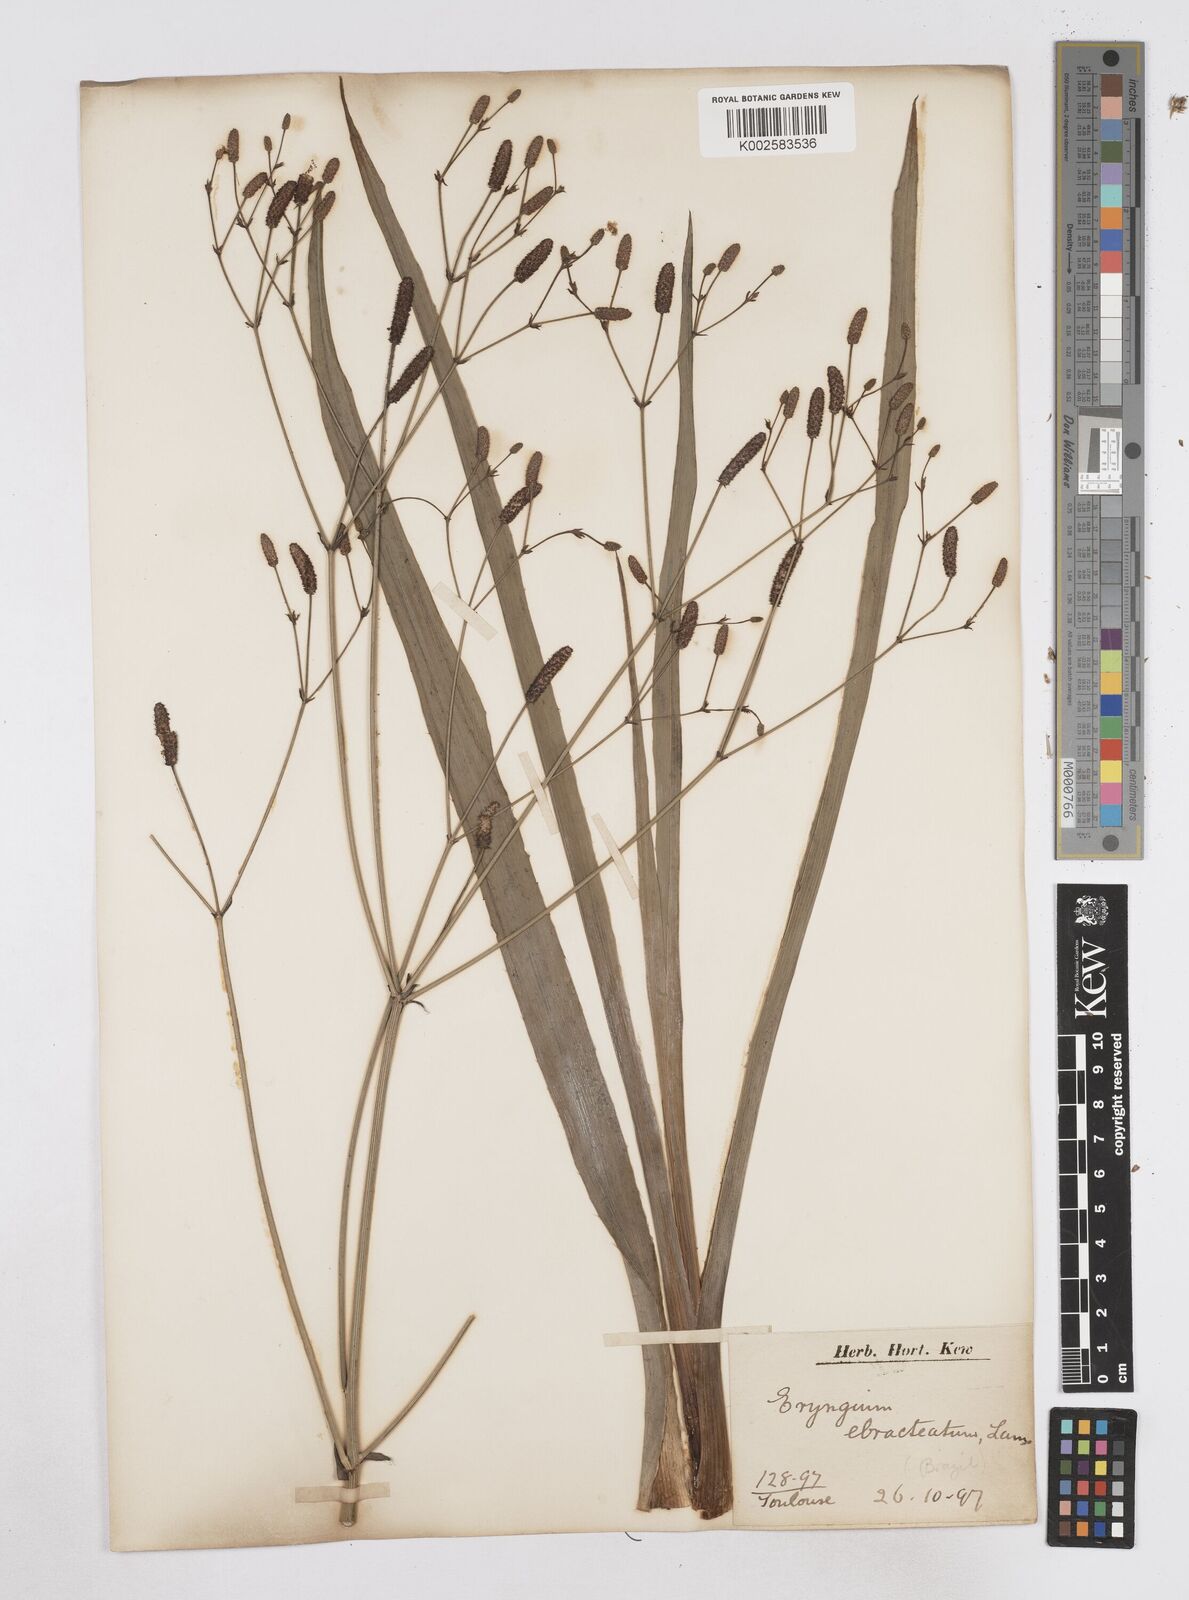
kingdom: Plantae
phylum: Tracheophyta
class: Magnoliopsida
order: Apiales
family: Apiaceae
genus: Eryngium
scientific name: Eryngium ebracteatum
